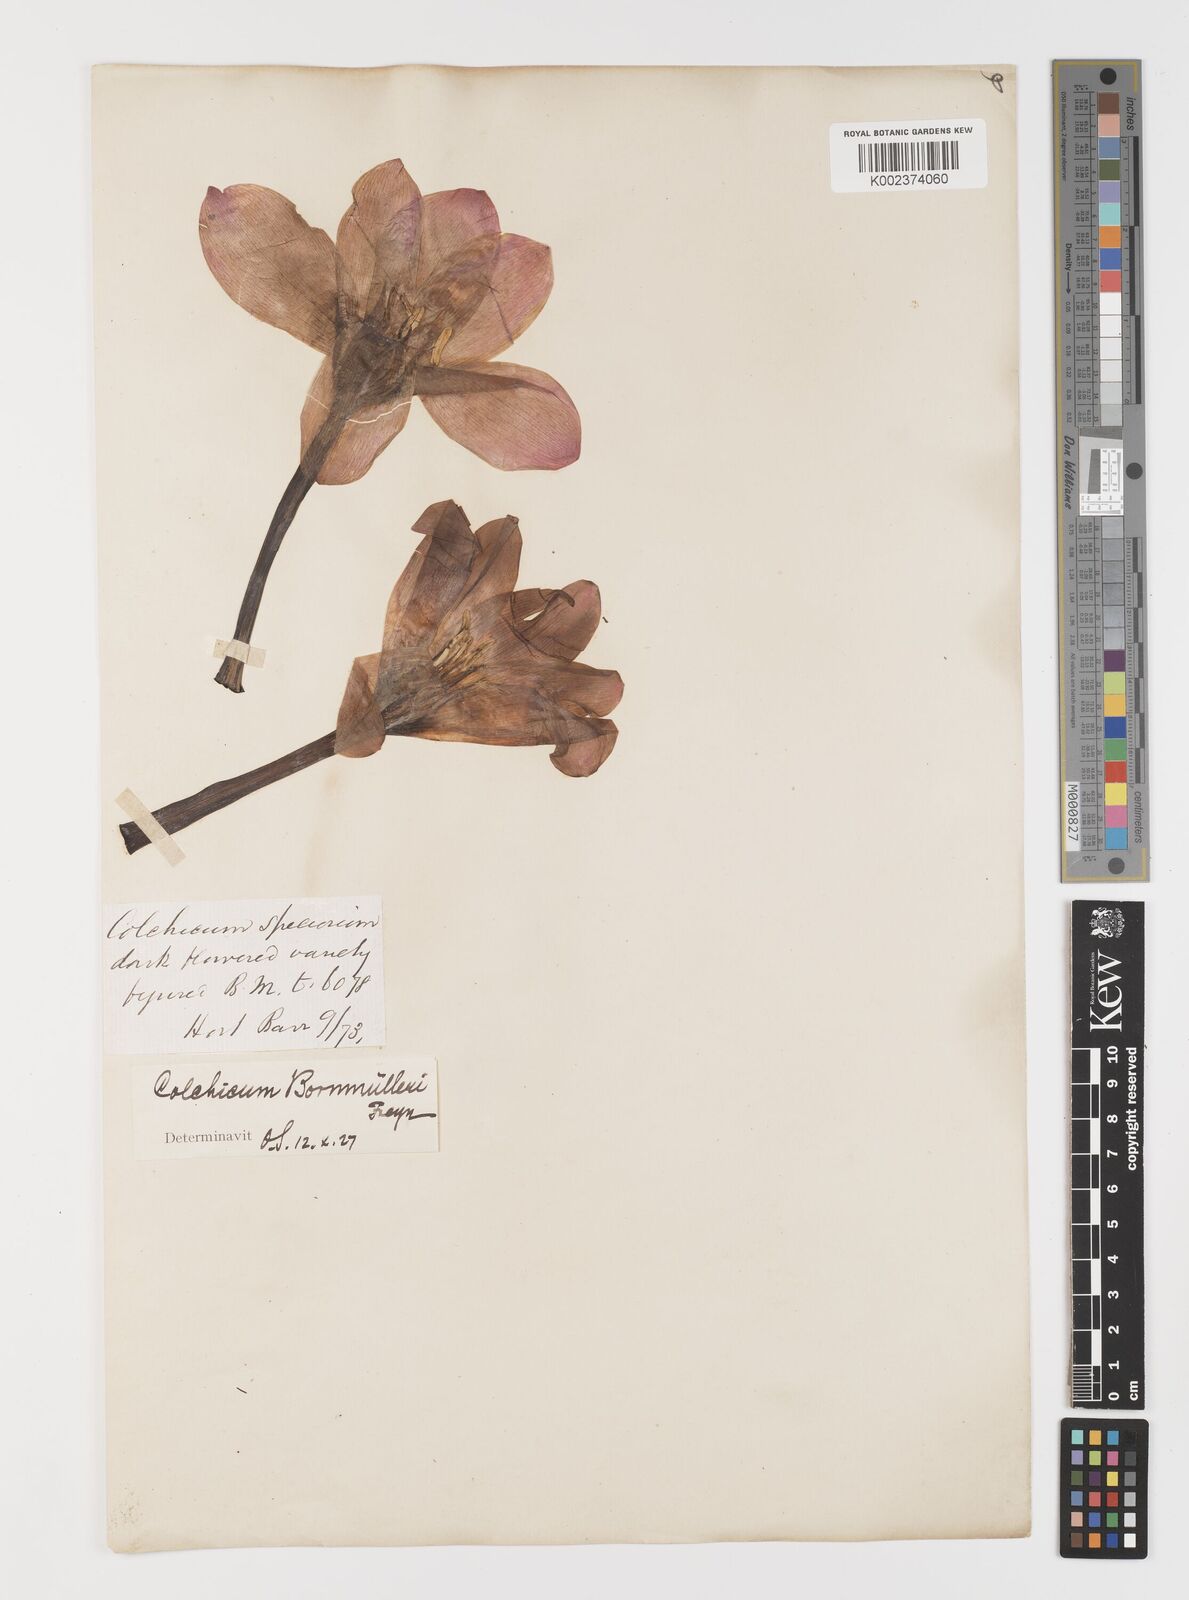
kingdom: Plantae
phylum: Tracheophyta
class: Liliopsida
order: Liliales
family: Colchicaceae
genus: Colchicum
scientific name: Colchicum speciosum
